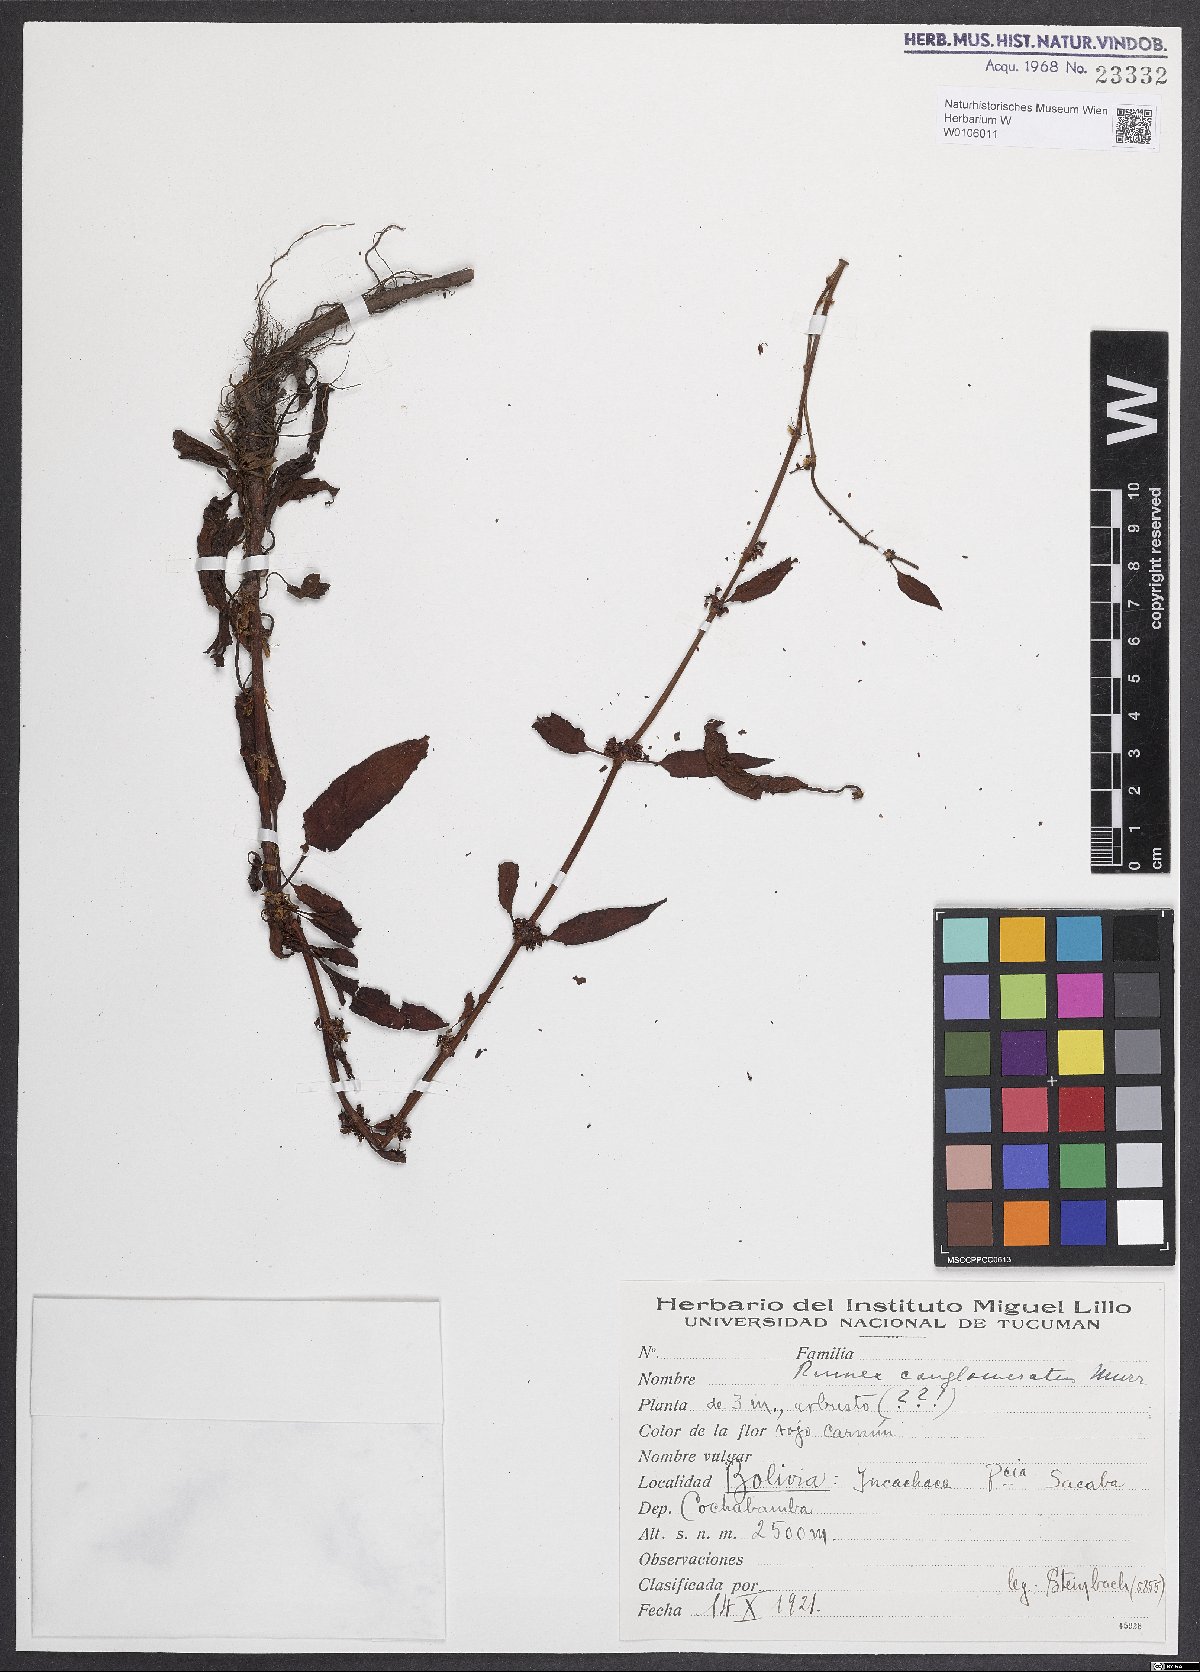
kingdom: Plantae
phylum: Tracheophyta
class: Magnoliopsida
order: Caryophyllales
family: Polygonaceae
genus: Rumex
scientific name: Rumex conglomeratus
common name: Clustered dock
